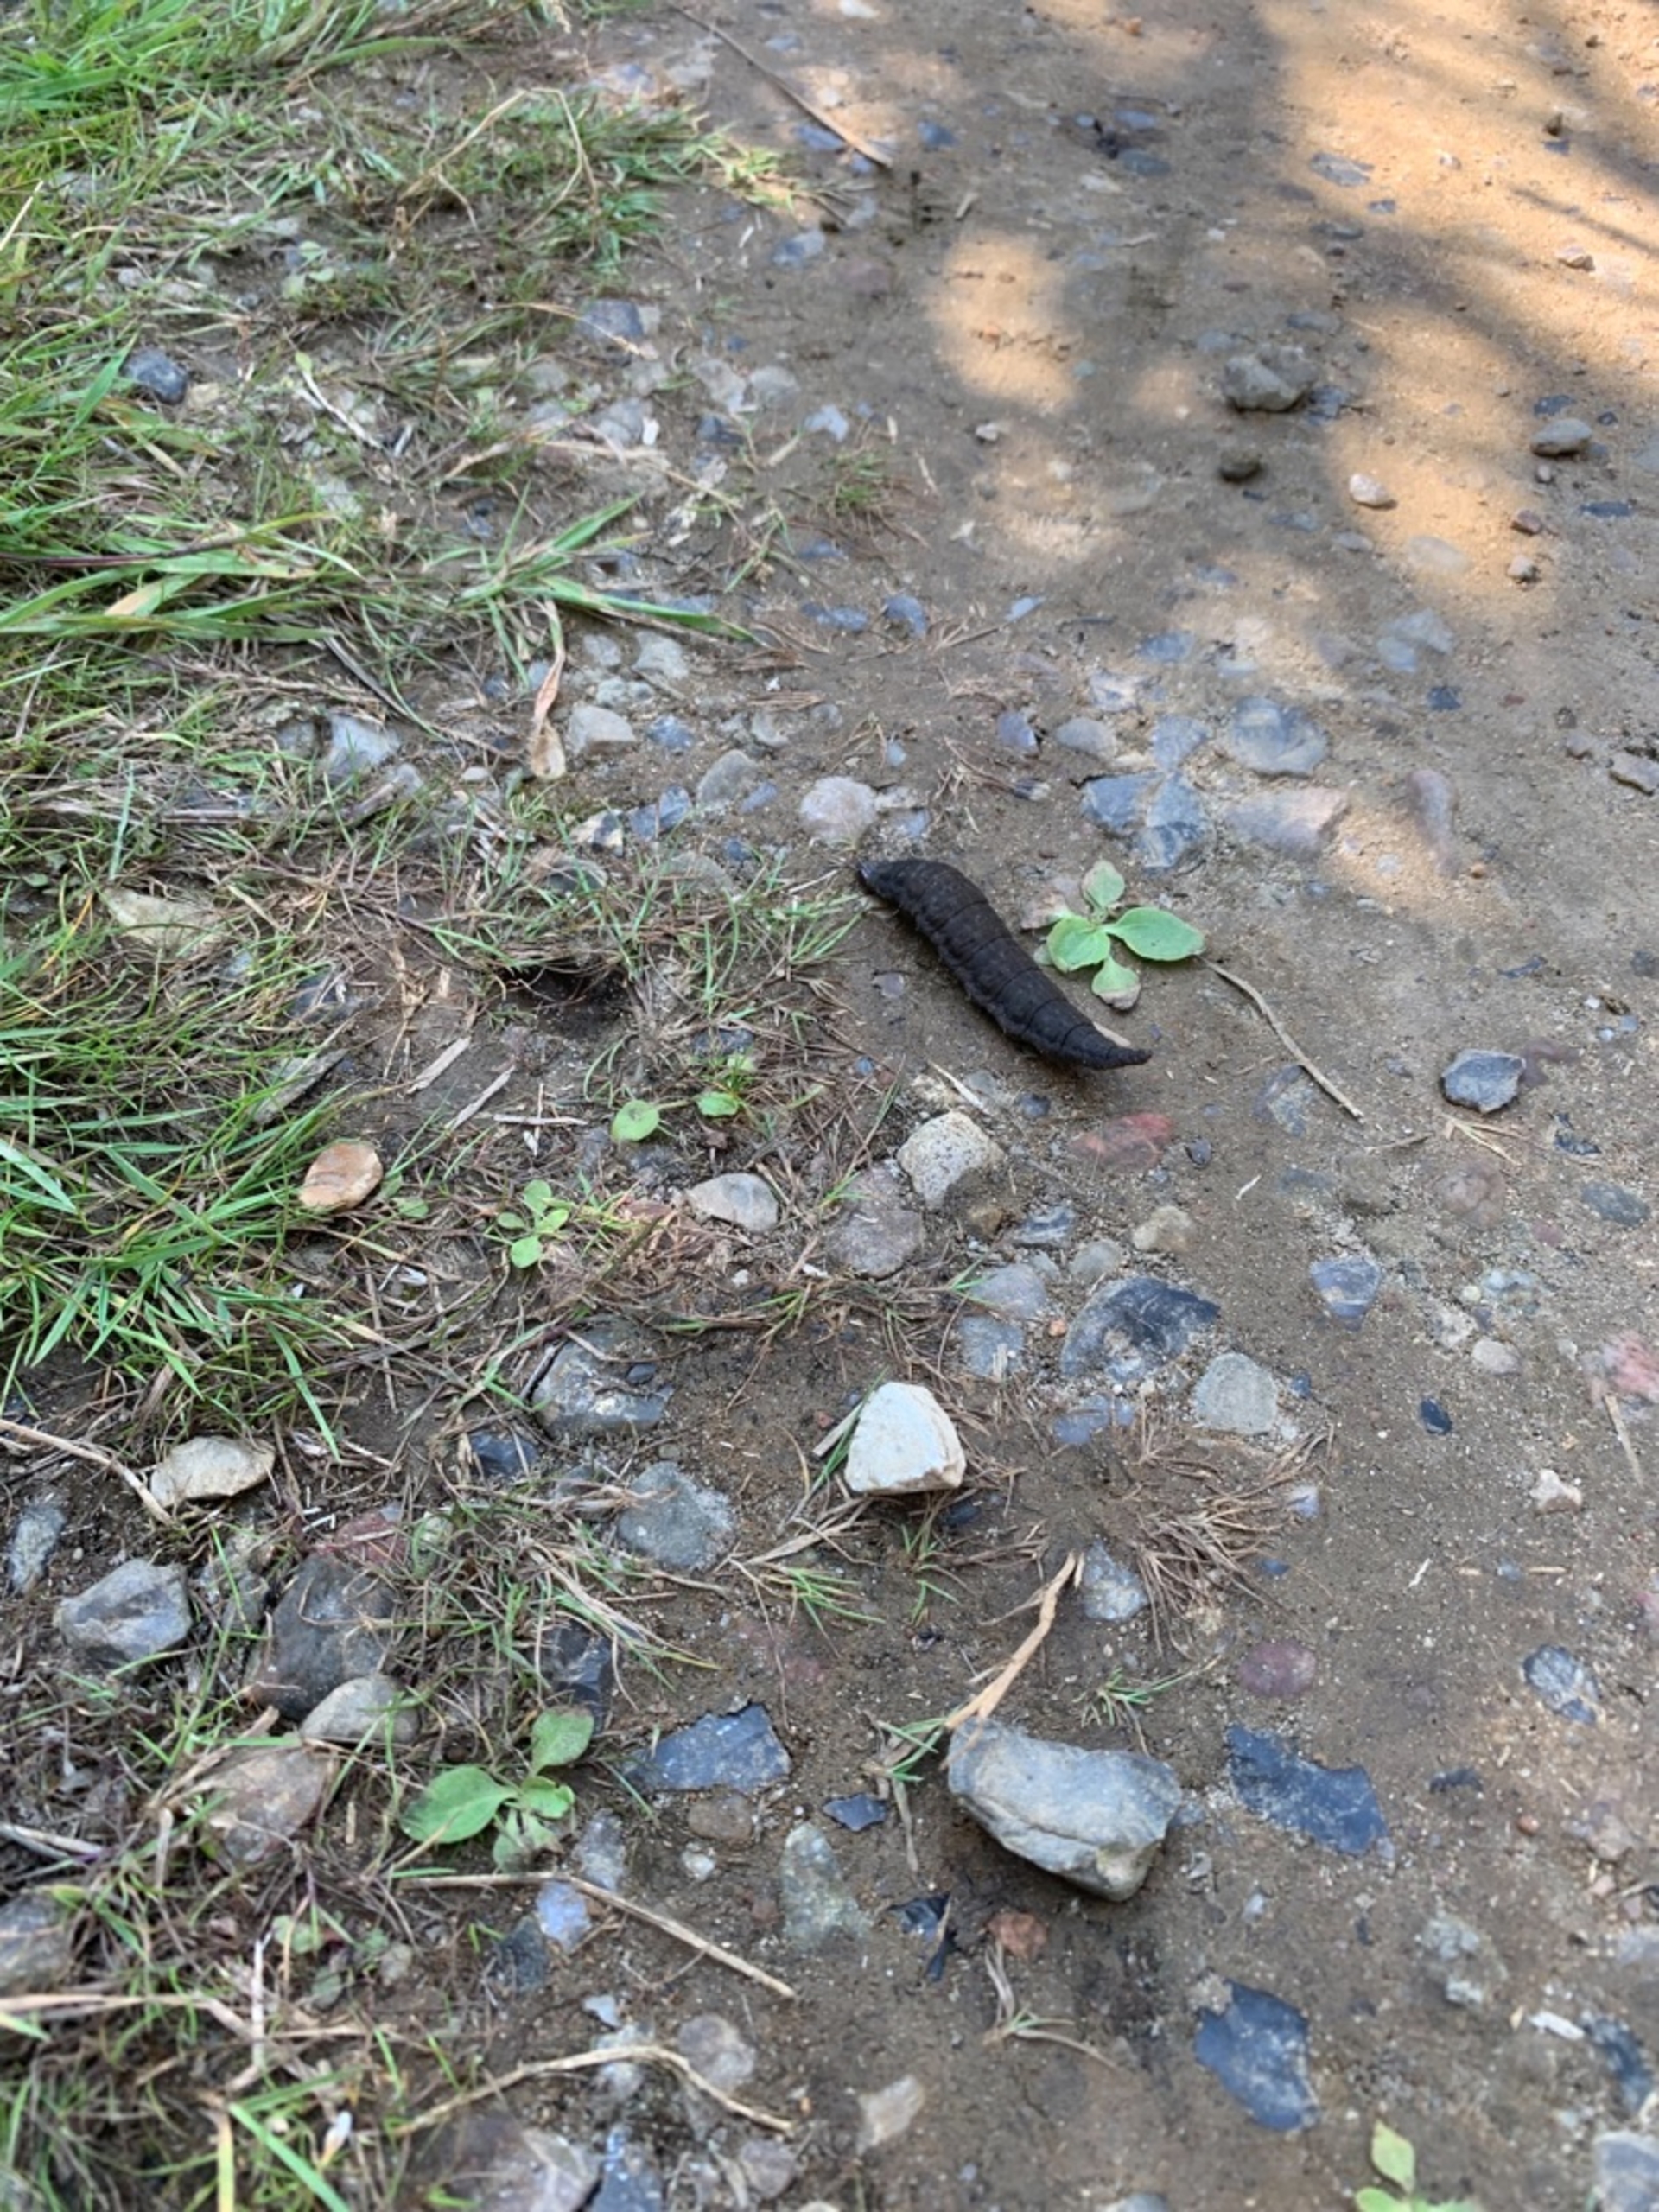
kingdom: Animalia
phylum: Arthropoda
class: Insecta
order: Coleoptera
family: Hydrophilidae
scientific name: Hydrophilidae
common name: Vandkærer
